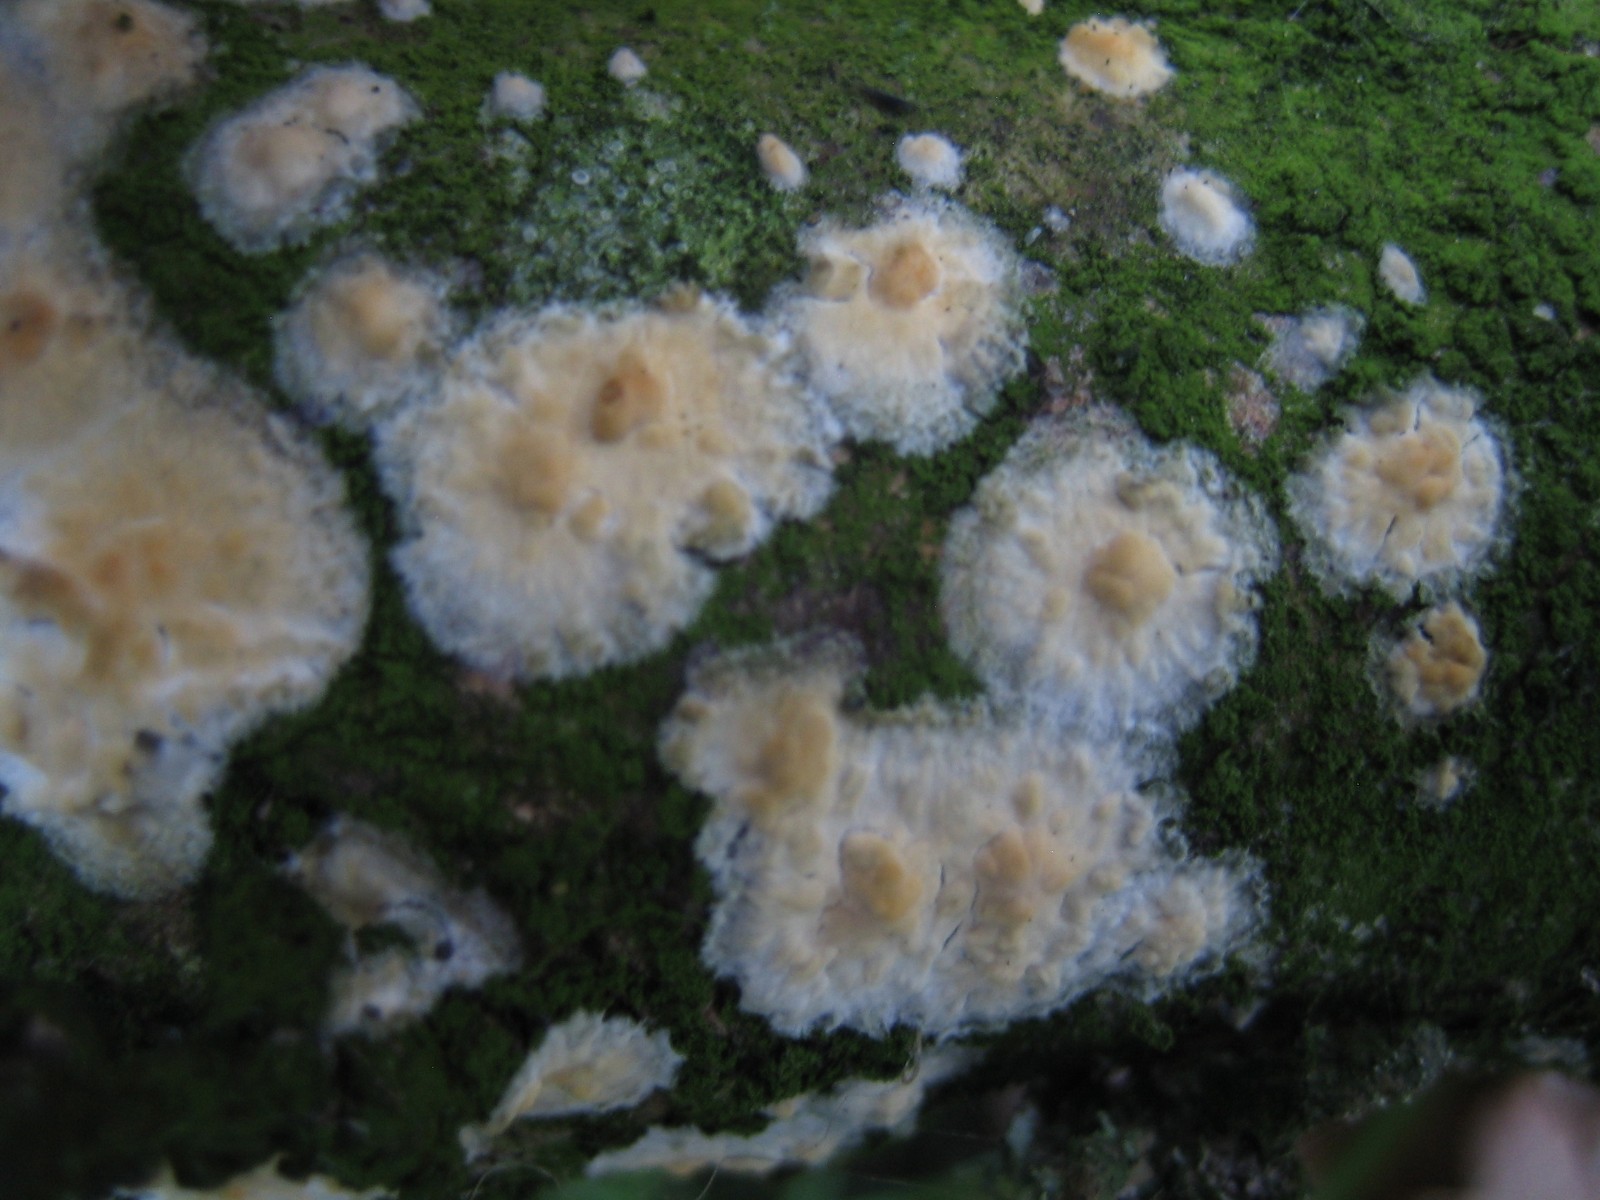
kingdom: Fungi
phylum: Basidiomycota
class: Agaricomycetes
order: Corticiales
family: Corticiaceae
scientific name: Corticiaceae
